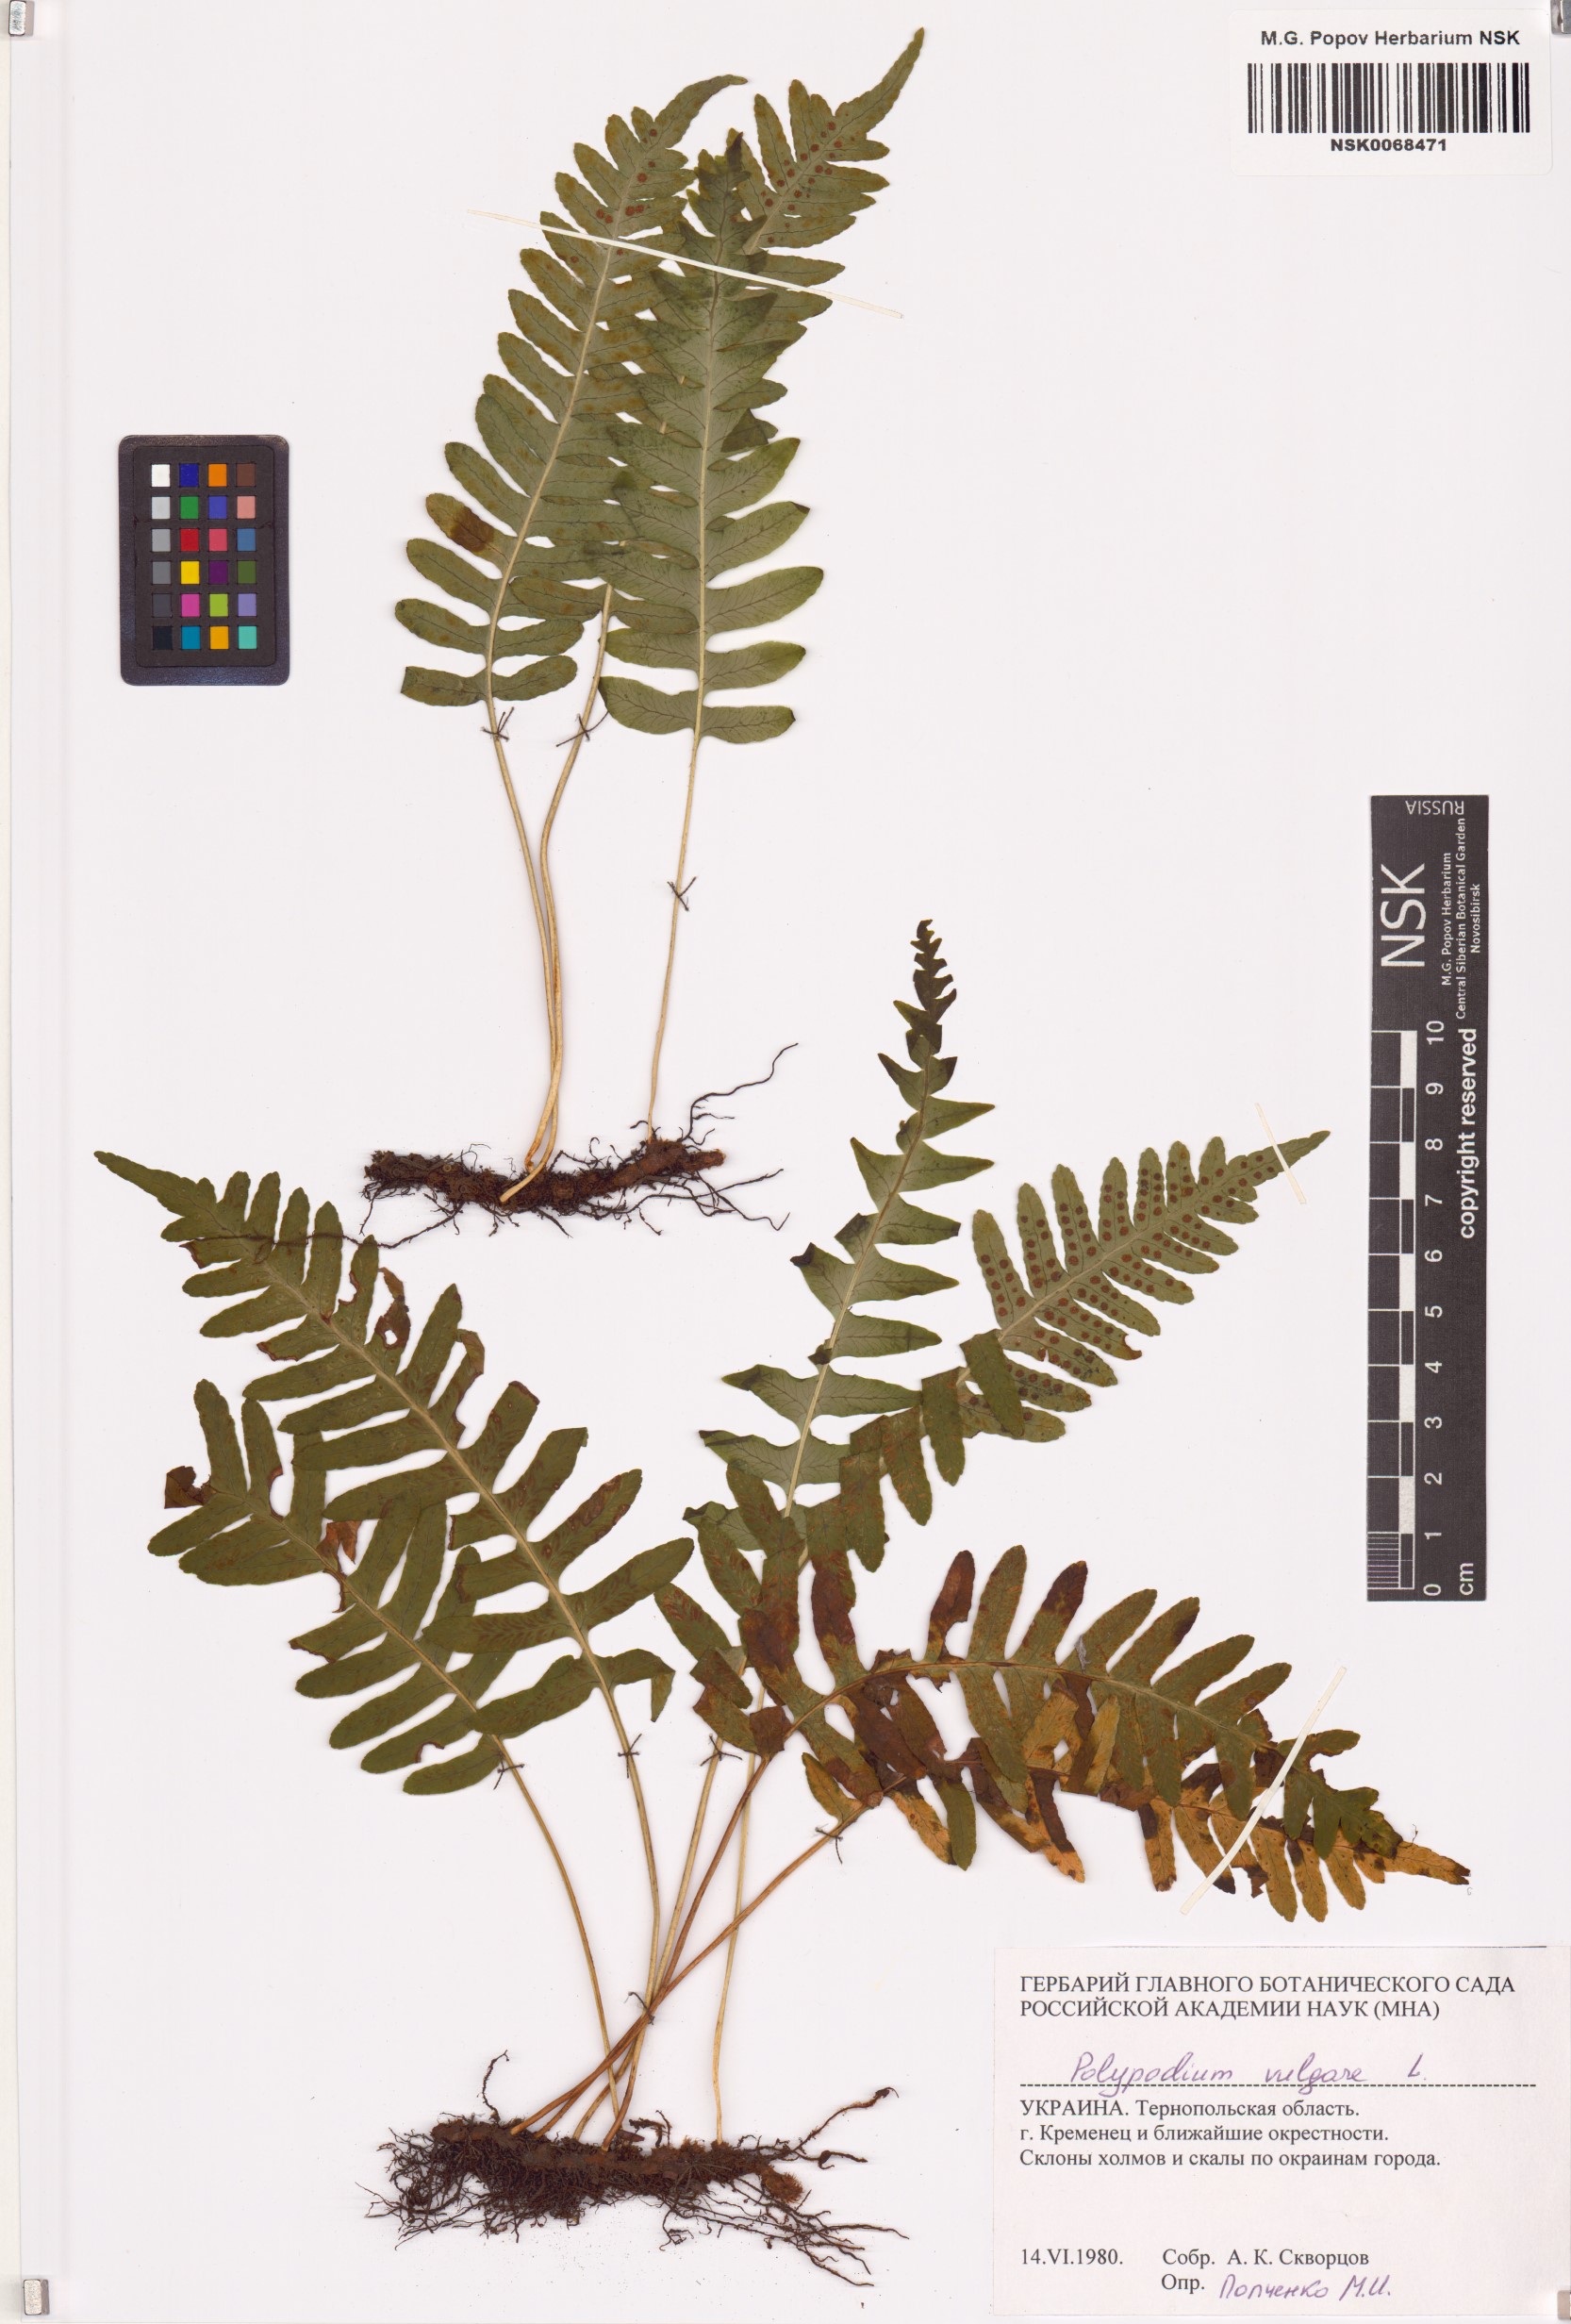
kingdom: Plantae
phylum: Tracheophyta
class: Polypodiopsida
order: Polypodiales
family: Polypodiaceae
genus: Polypodium
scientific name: Polypodium vulgare
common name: Common polypody
